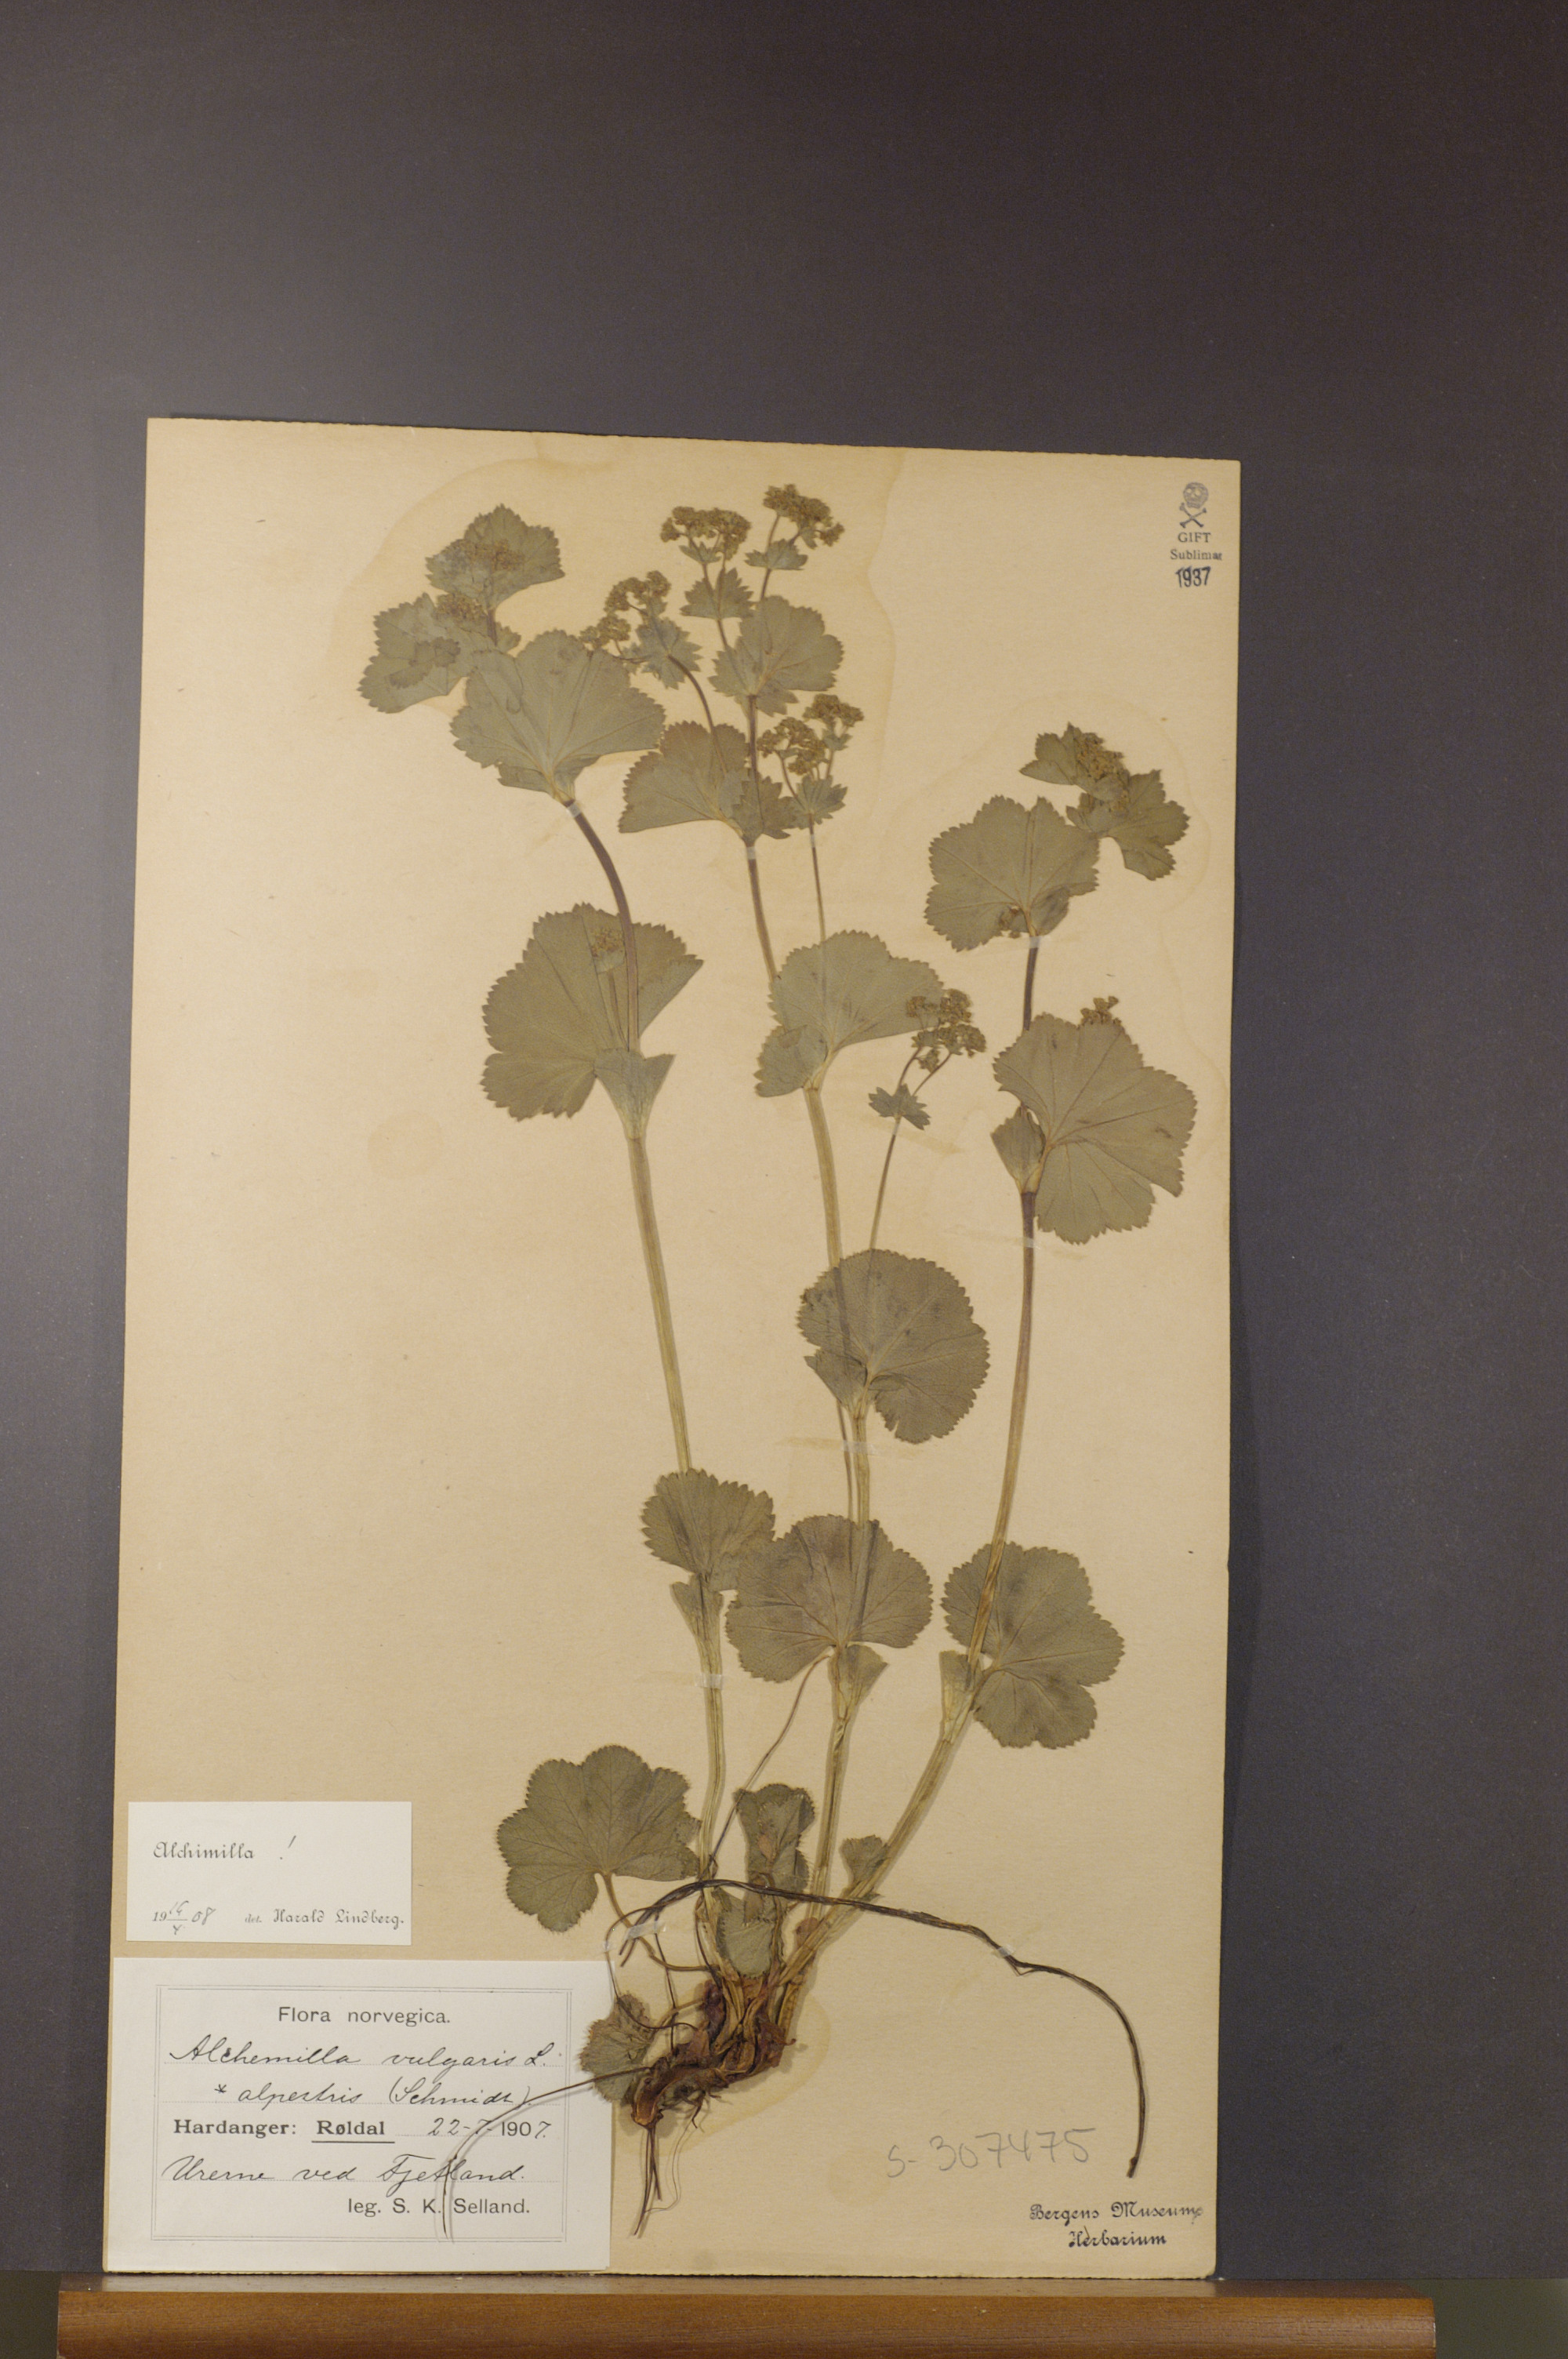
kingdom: Plantae
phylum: Tracheophyta
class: Magnoliopsida
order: Rosales
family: Rosaceae
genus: Alchemilla
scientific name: Alchemilla glabra
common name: Smooth lady's-mantle
